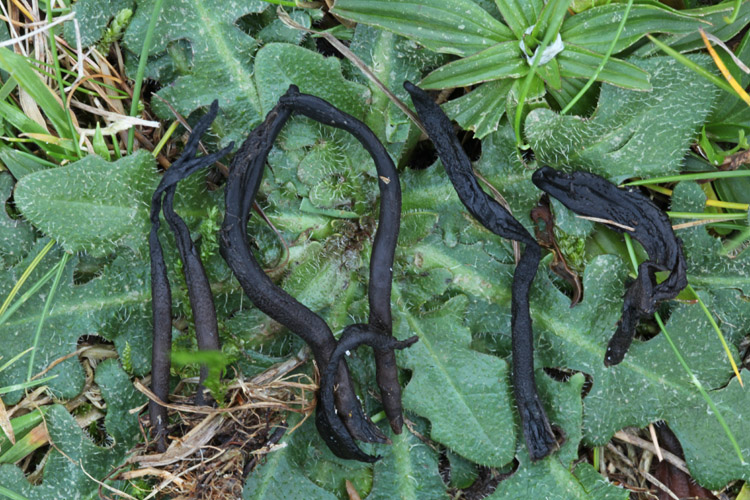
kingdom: Fungi
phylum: Ascomycota
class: Geoglossomycetes
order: Geoglossales
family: Geoglossaceae
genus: Hemileucoglossum
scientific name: Hemileucoglossum elongatum
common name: småsporet jordtunge
